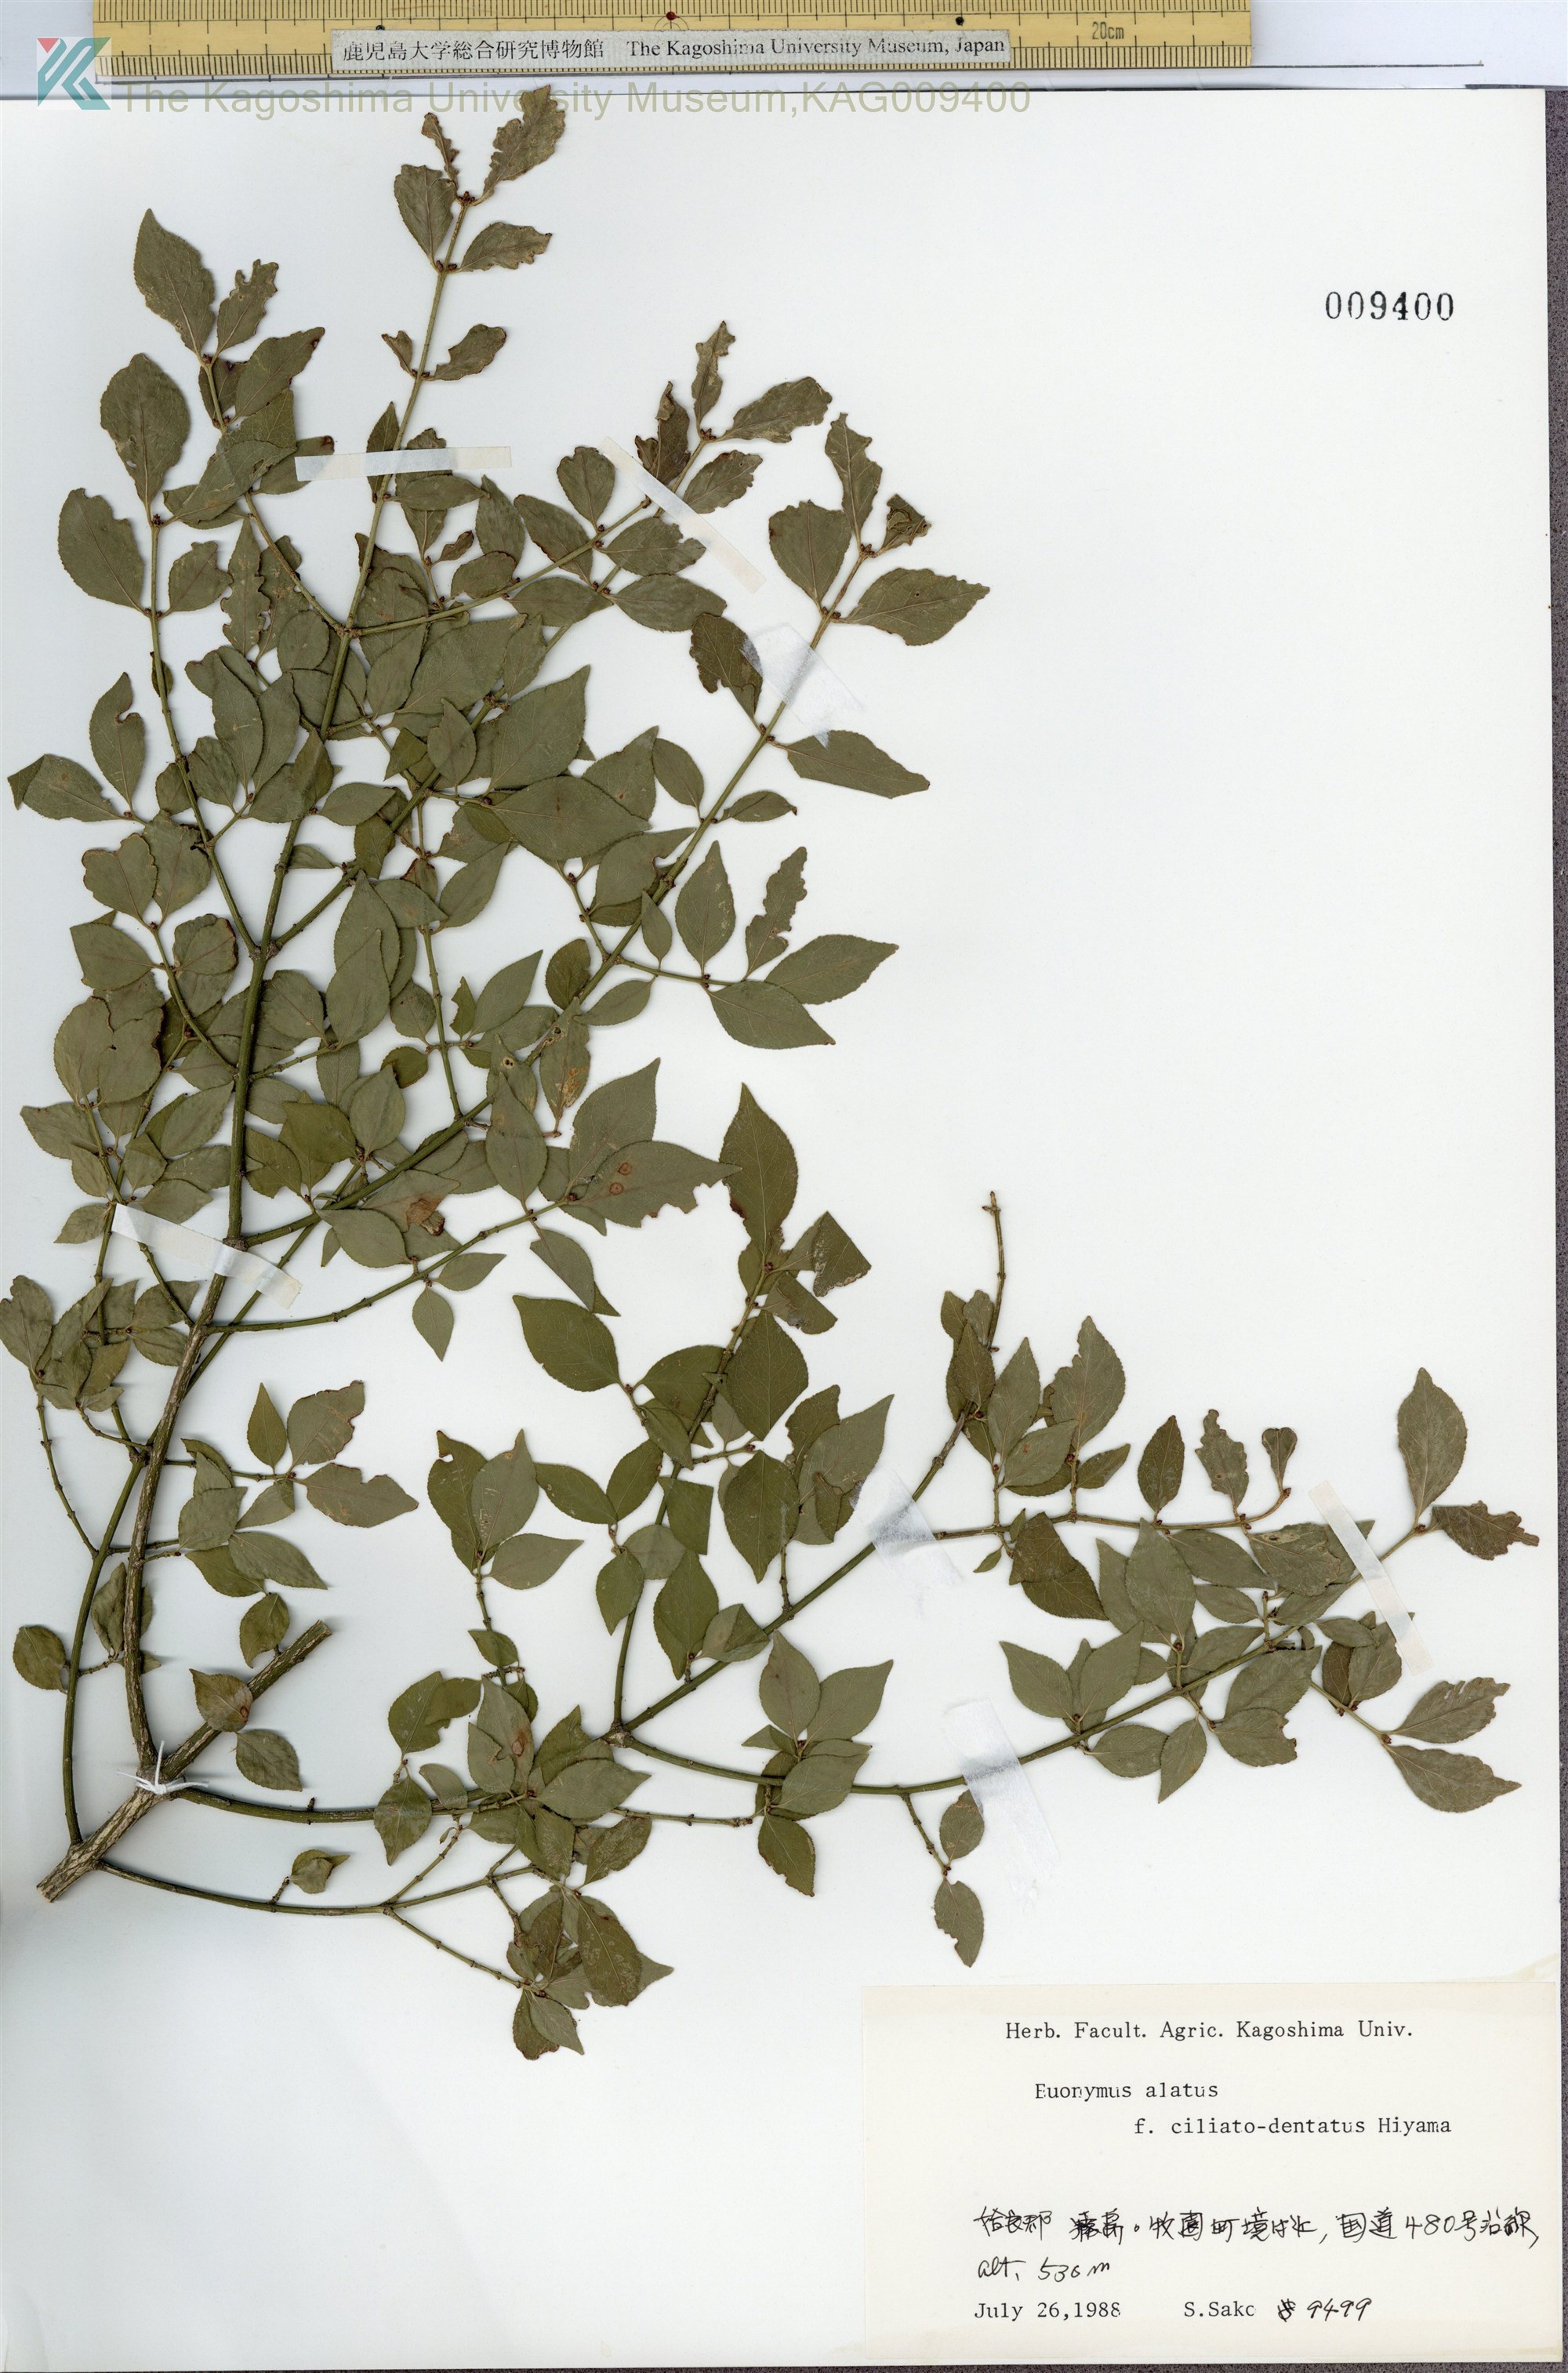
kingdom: Plantae
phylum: Tracheophyta
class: Magnoliopsida
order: Celastrales
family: Celastraceae
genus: Euonymus
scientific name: Euonymus alatus
